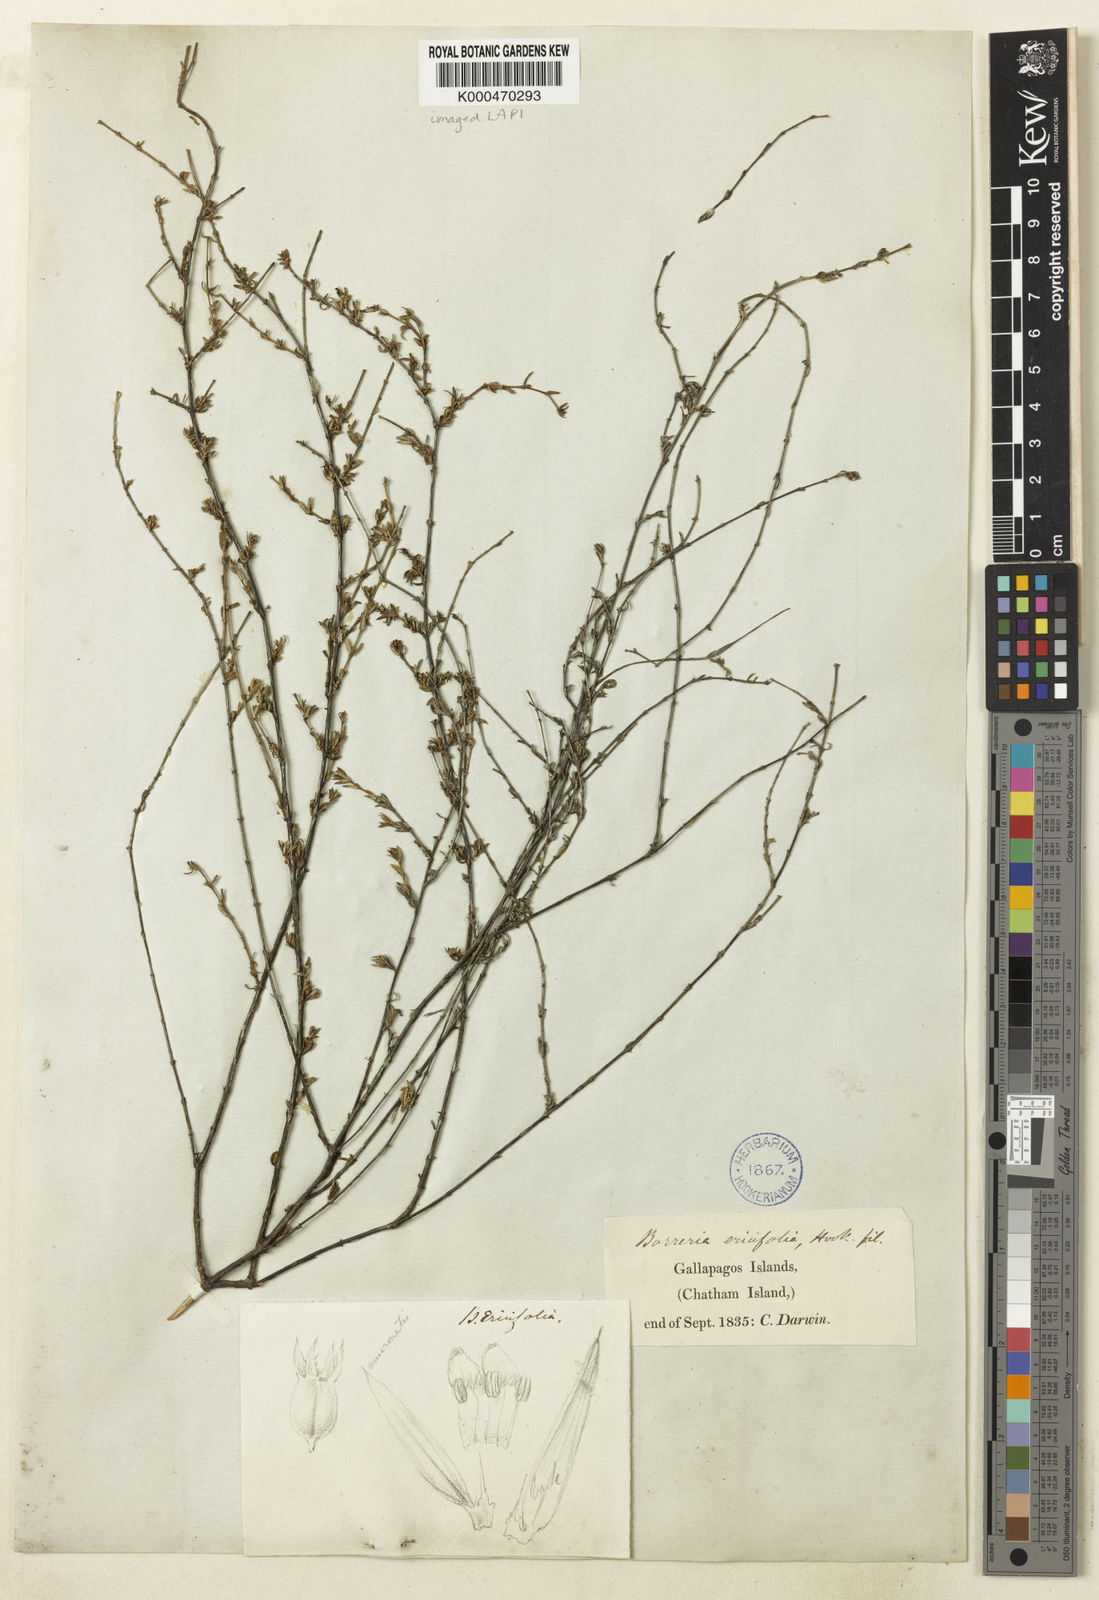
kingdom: Plantae
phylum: Tracheophyta
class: Magnoliopsida
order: Gentianales
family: Rubiaceae
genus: Spermacoce
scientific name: Spermacoce divaricata
